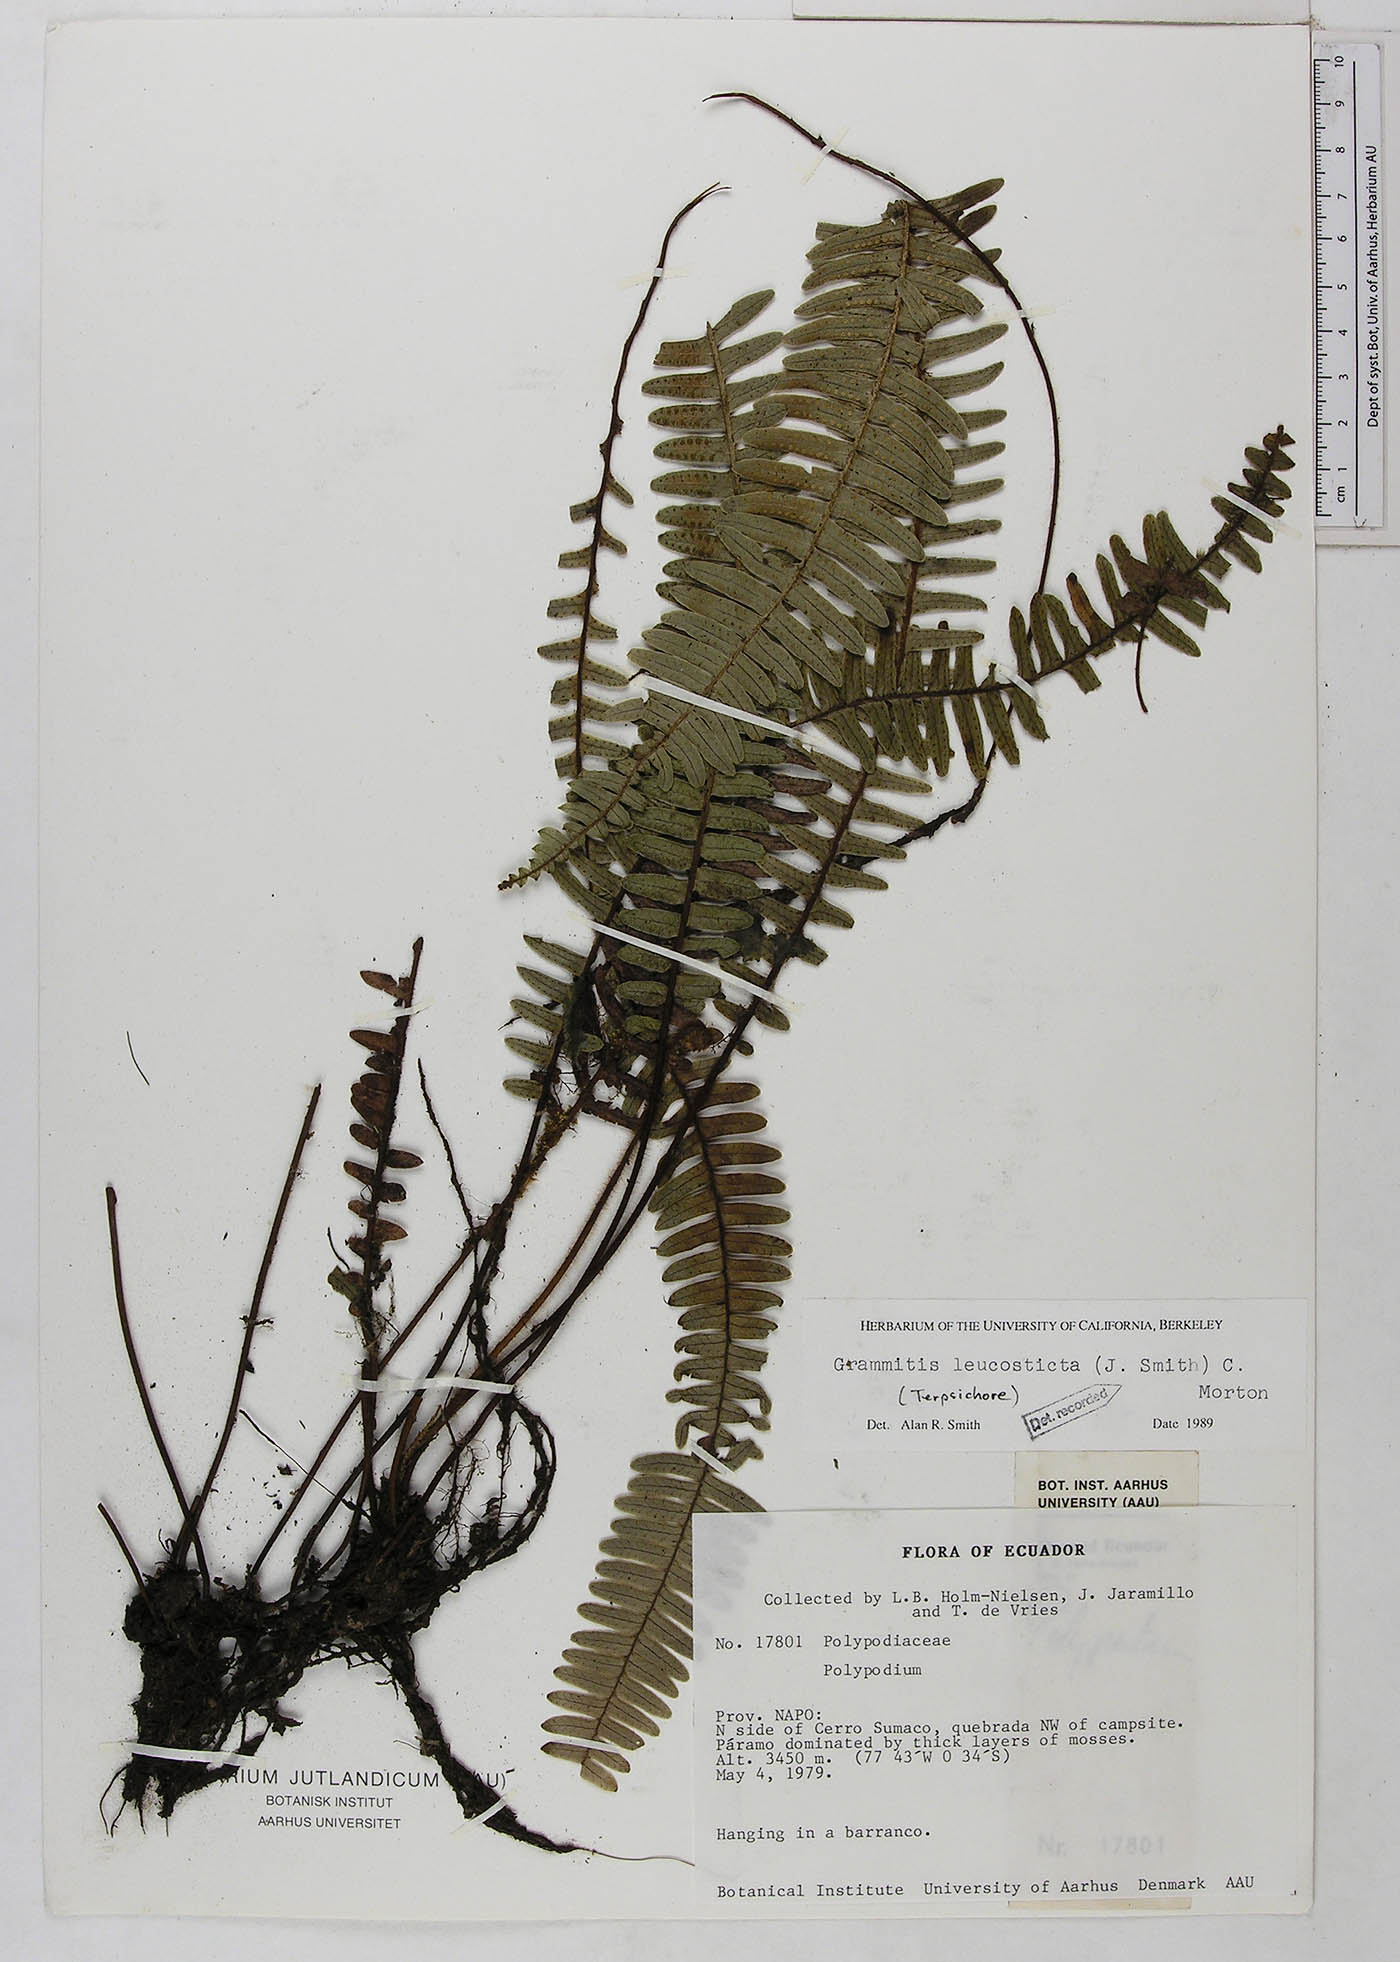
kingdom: Plantae
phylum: Tracheophyta
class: Polypodiopsida
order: Polypodiales
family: Polypodiaceae
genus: Mycopteris
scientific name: Mycopteris leucosticta
